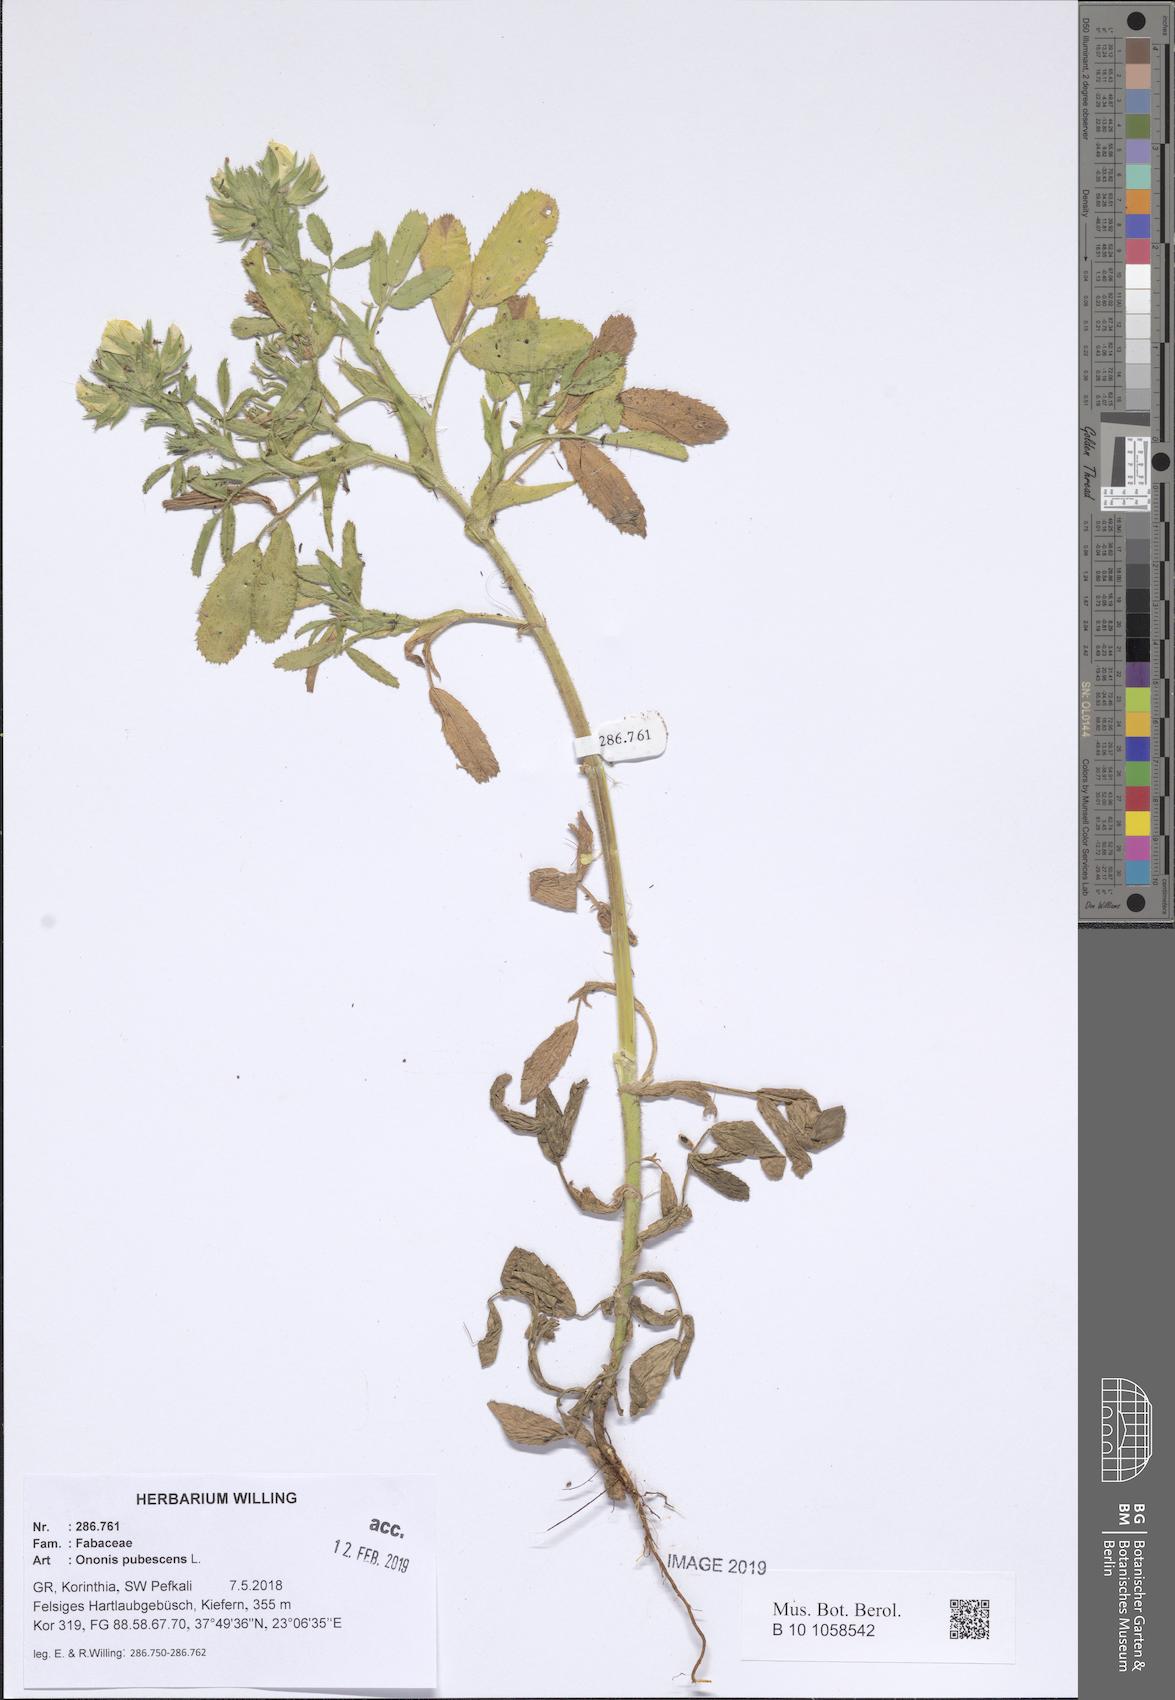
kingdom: Plantae
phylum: Tracheophyta
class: Magnoliopsida
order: Fabales
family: Fabaceae
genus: Ononis
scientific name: Ononis pubescens
